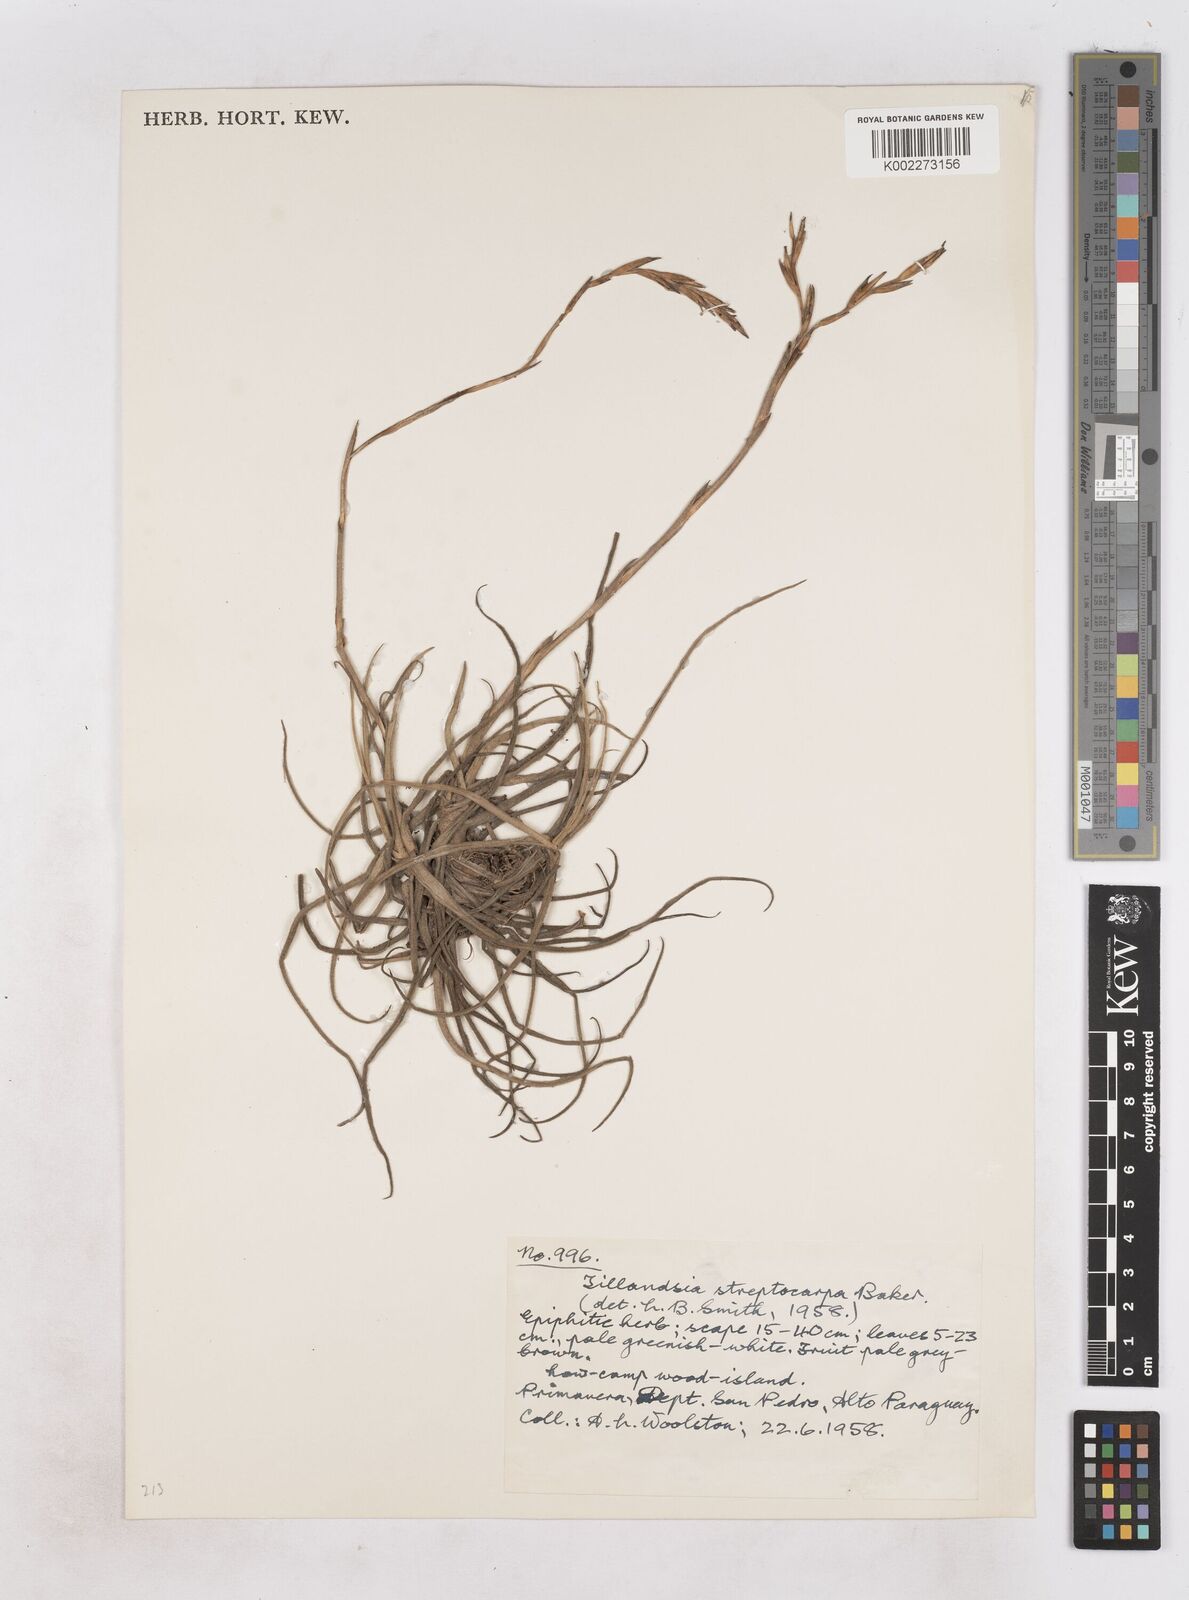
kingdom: Plantae
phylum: Tracheophyta
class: Liliopsida
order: Poales
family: Bromeliaceae
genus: Tillandsia
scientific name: Tillandsia restrepoana
